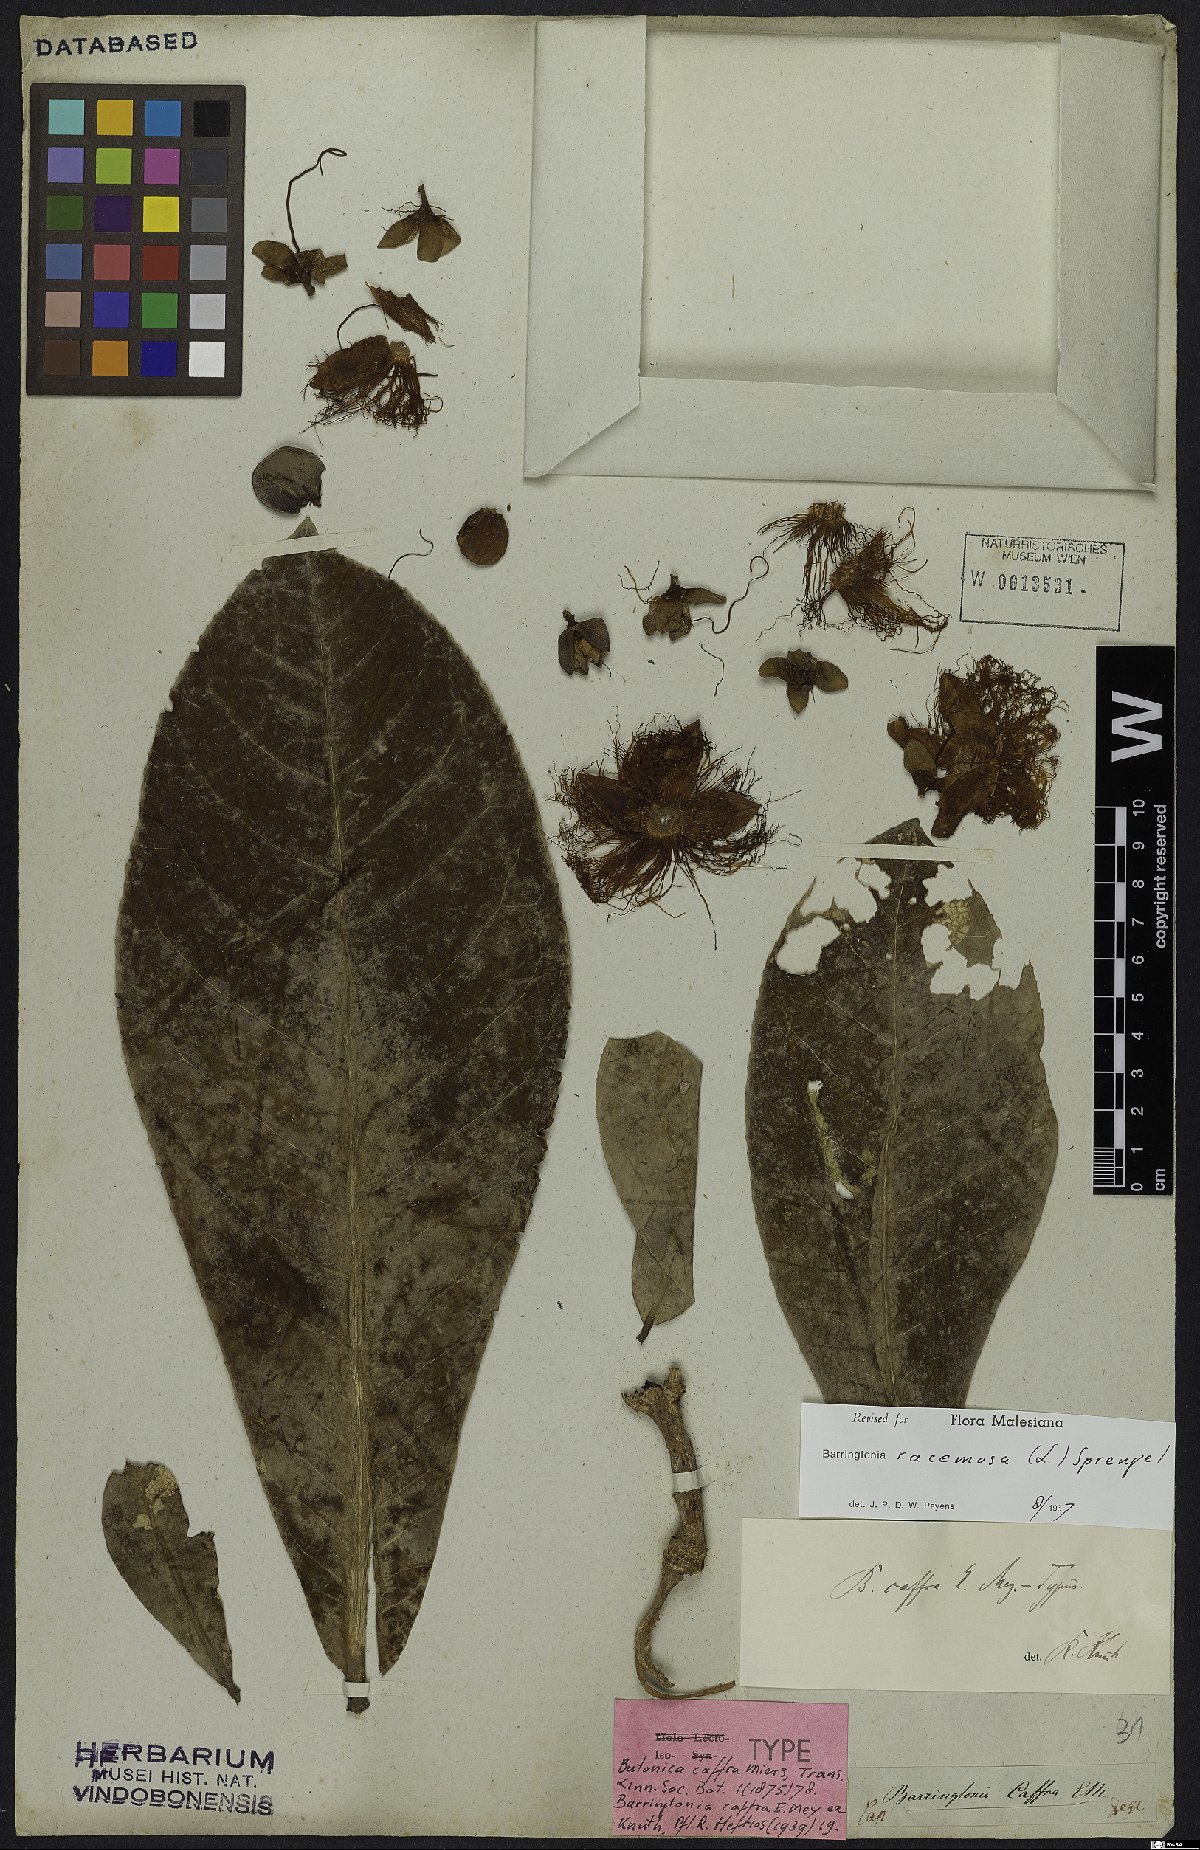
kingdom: Plantae
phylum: Tracheophyta
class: Magnoliopsida
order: Ericales
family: Lecythidaceae
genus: Barringtonia
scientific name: Barringtonia racemosa
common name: Brackwater mangrove
